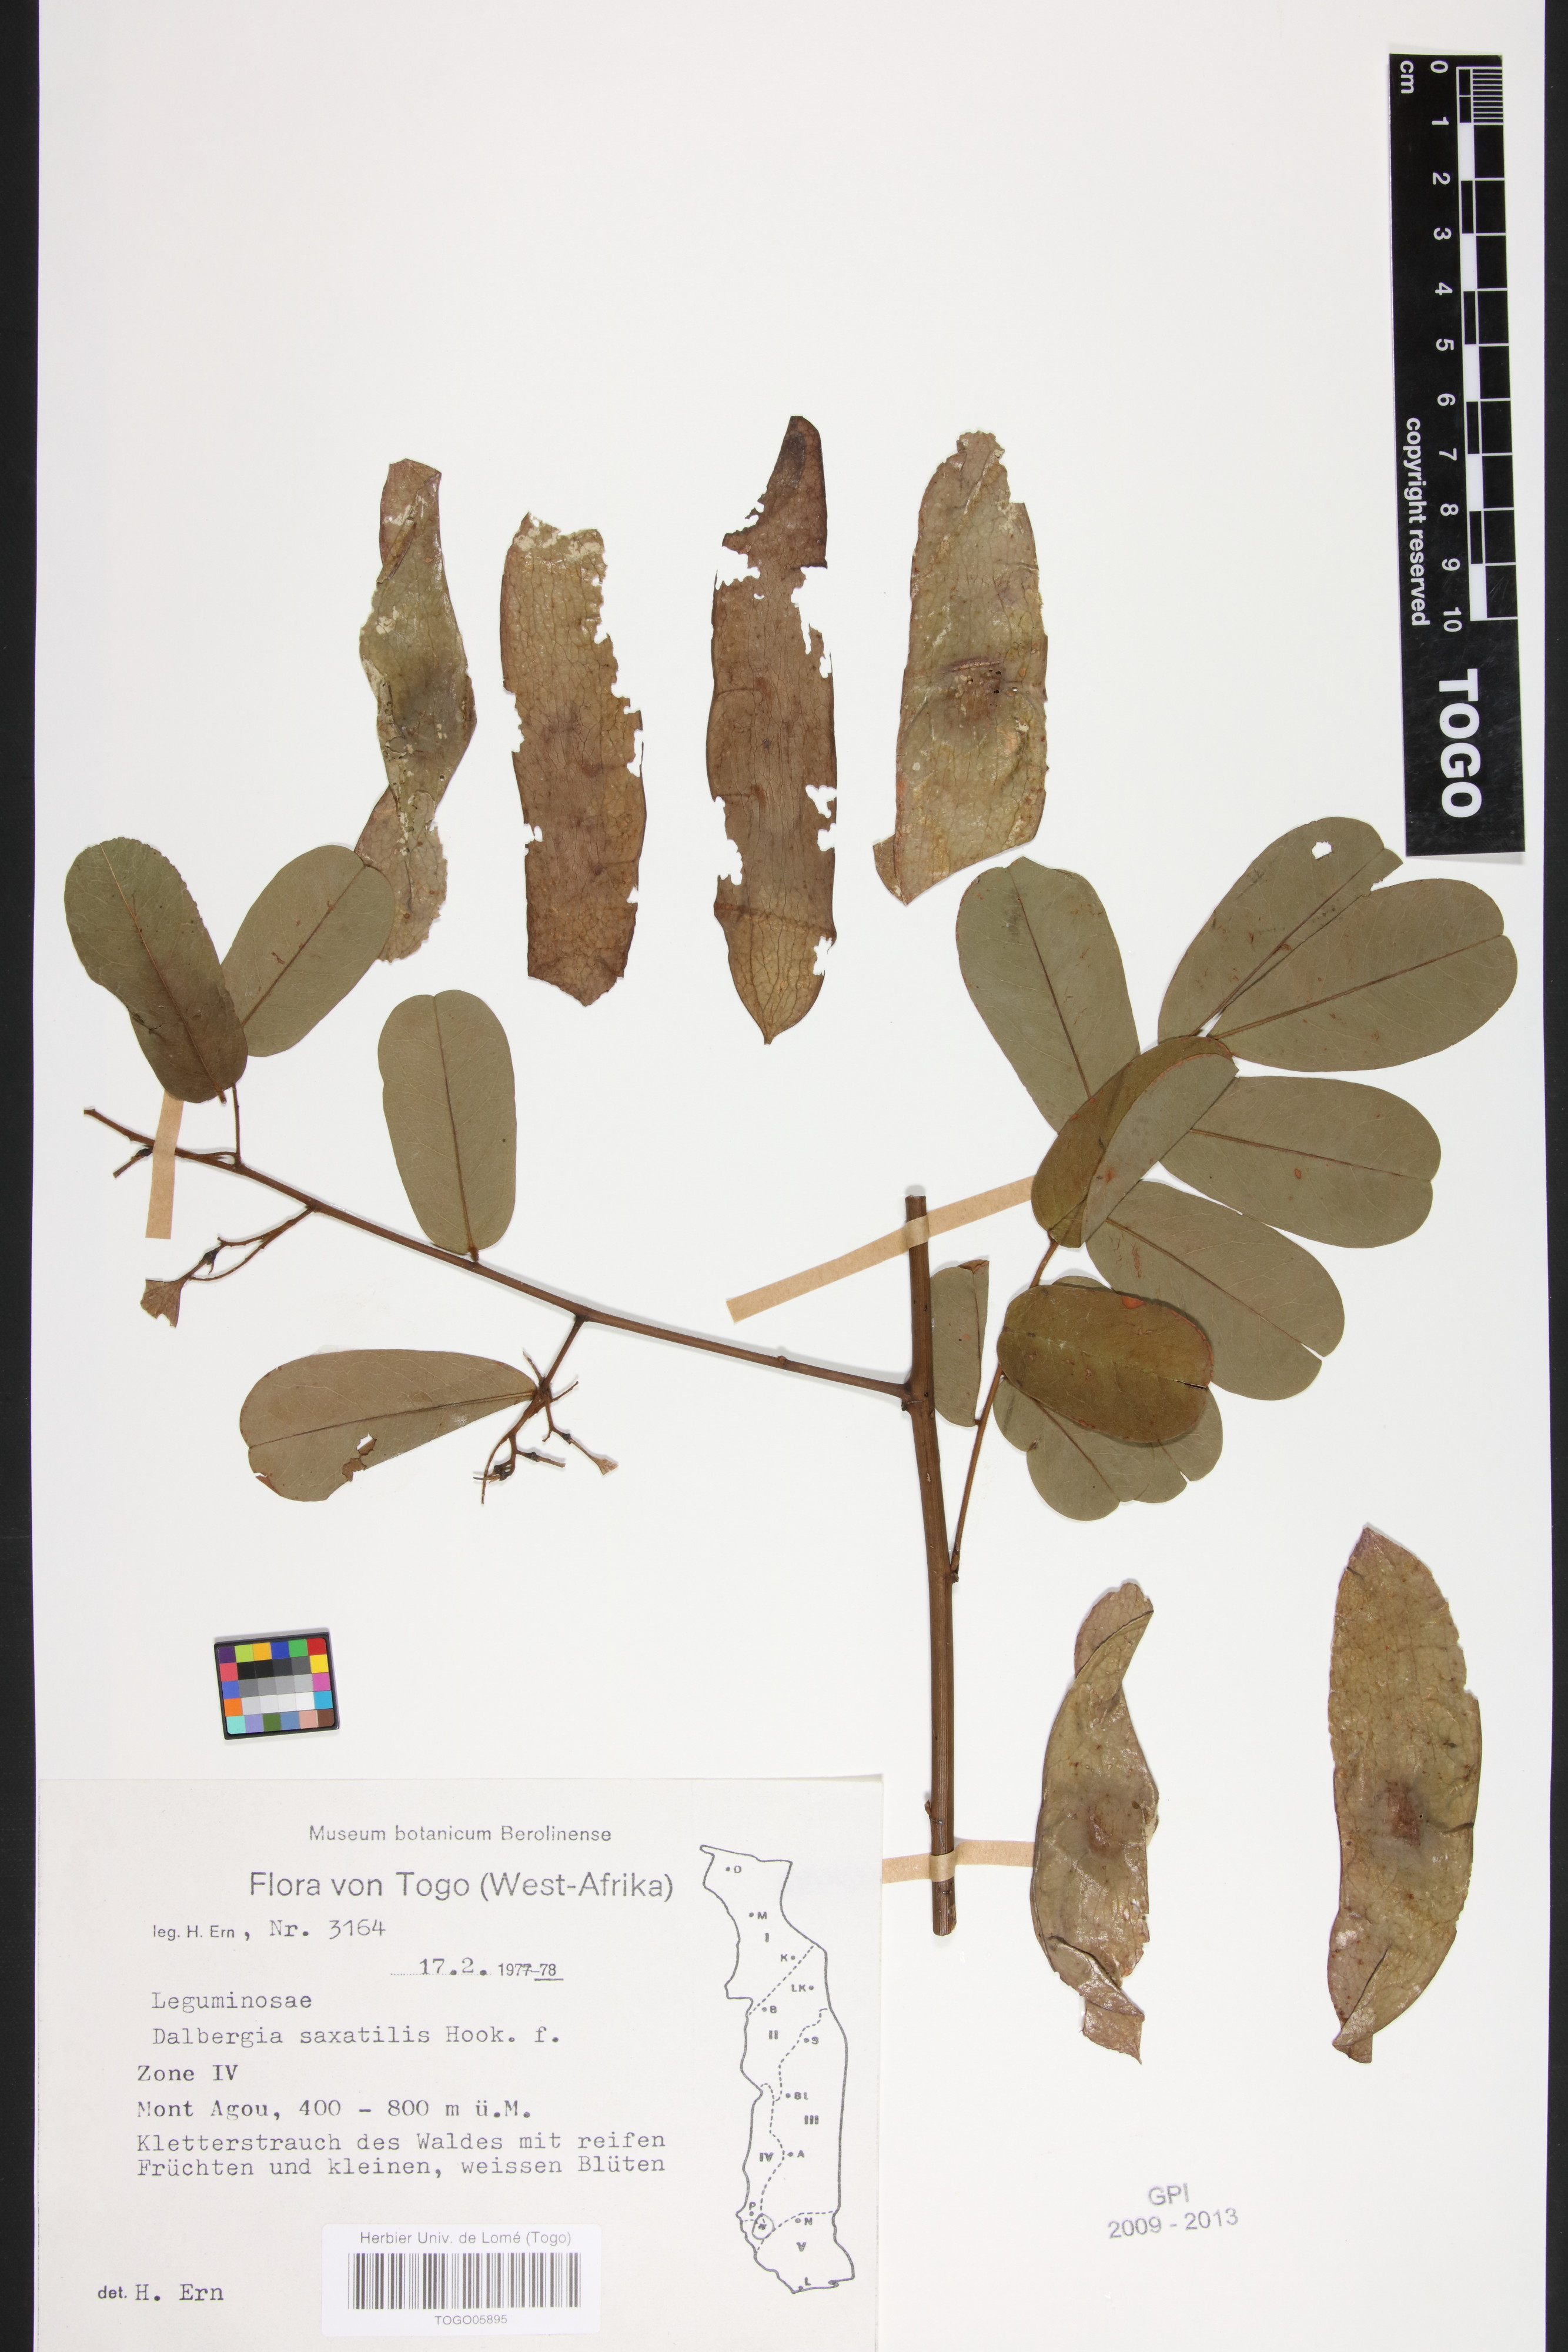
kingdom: Plantae
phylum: Tracheophyta
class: Magnoliopsida
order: Fabales
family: Fabaceae
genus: Dalbergia
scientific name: Dalbergia saxatilis
